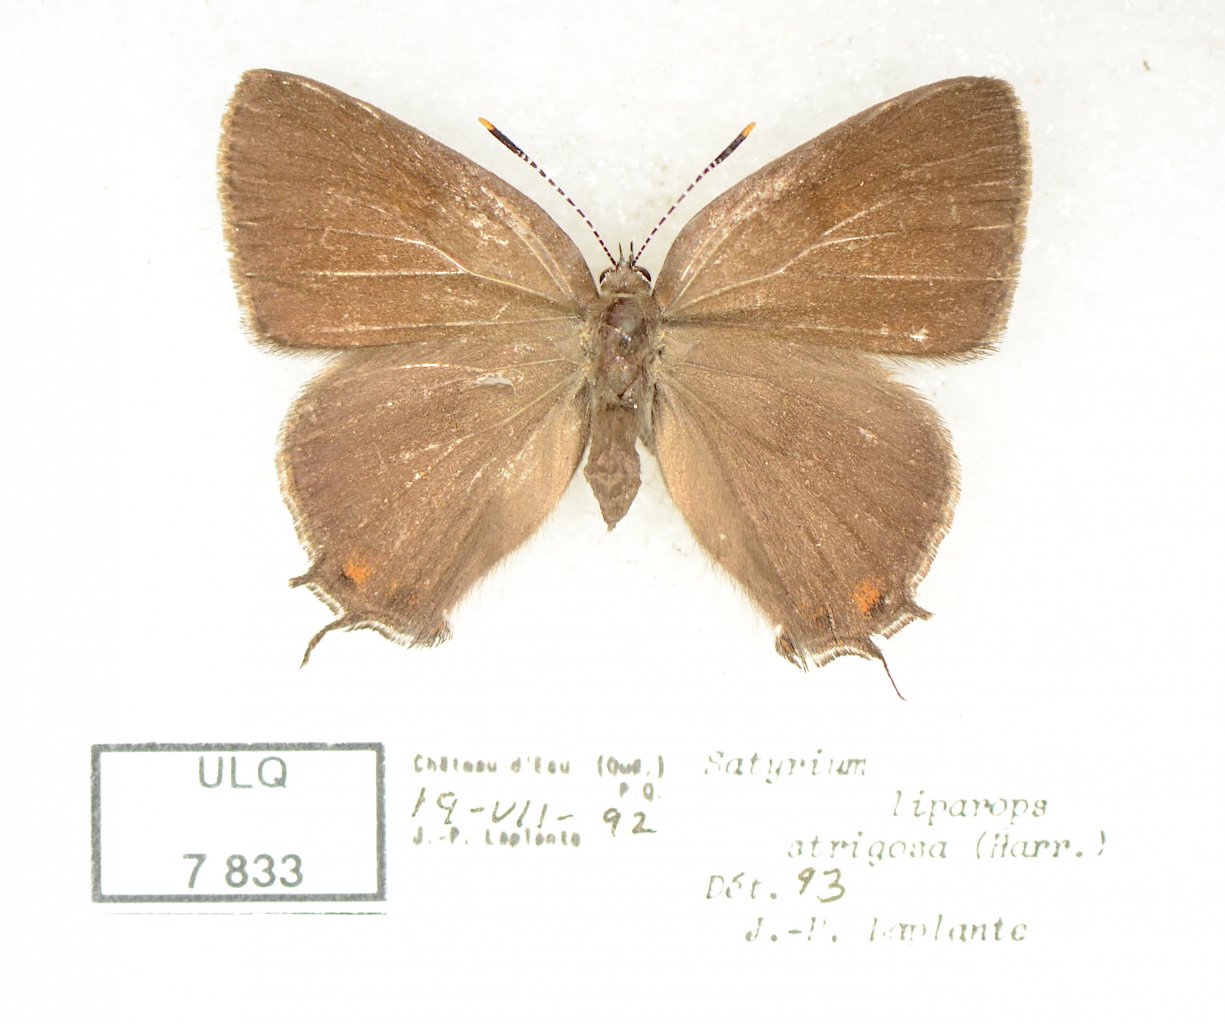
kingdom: Animalia
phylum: Arthropoda
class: Insecta
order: Lepidoptera
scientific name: Lepidoptera
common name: Butterflies
